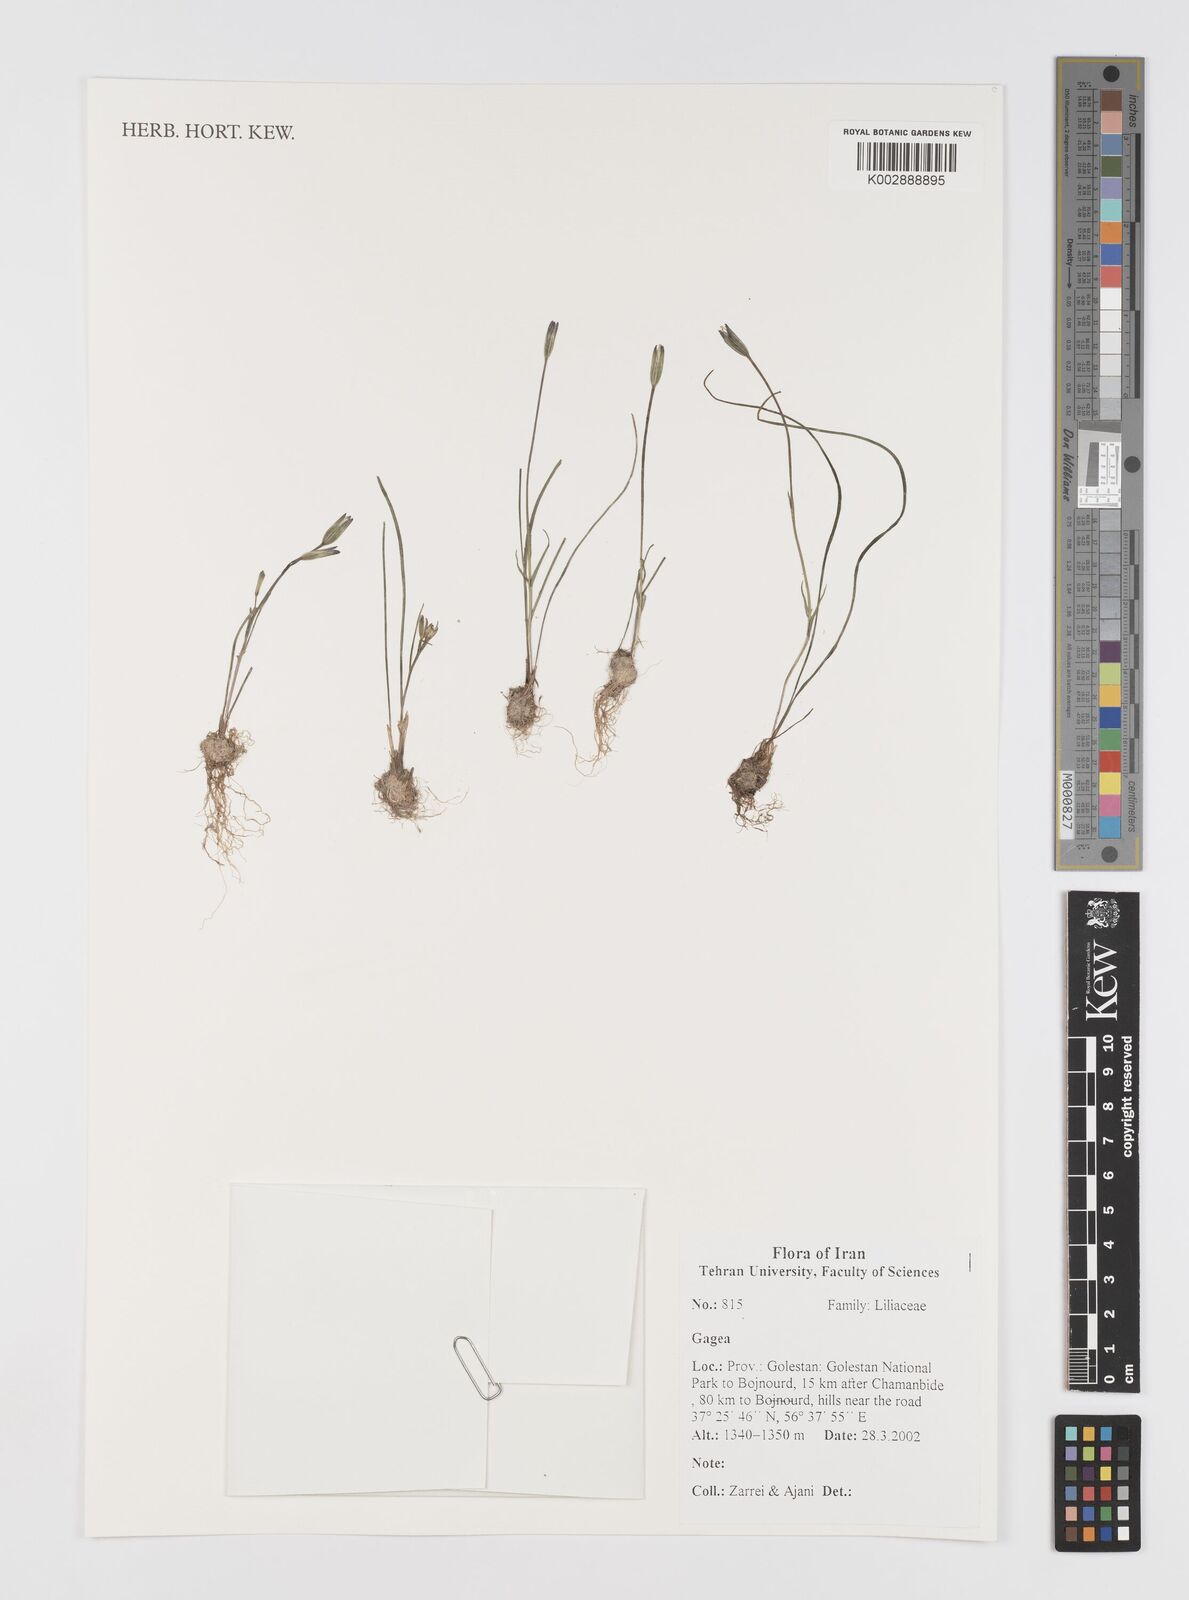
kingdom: Plantae
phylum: Tracheophyta
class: Liliopsida
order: Liliales
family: Liliaceae
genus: Gagea
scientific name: Gagea
